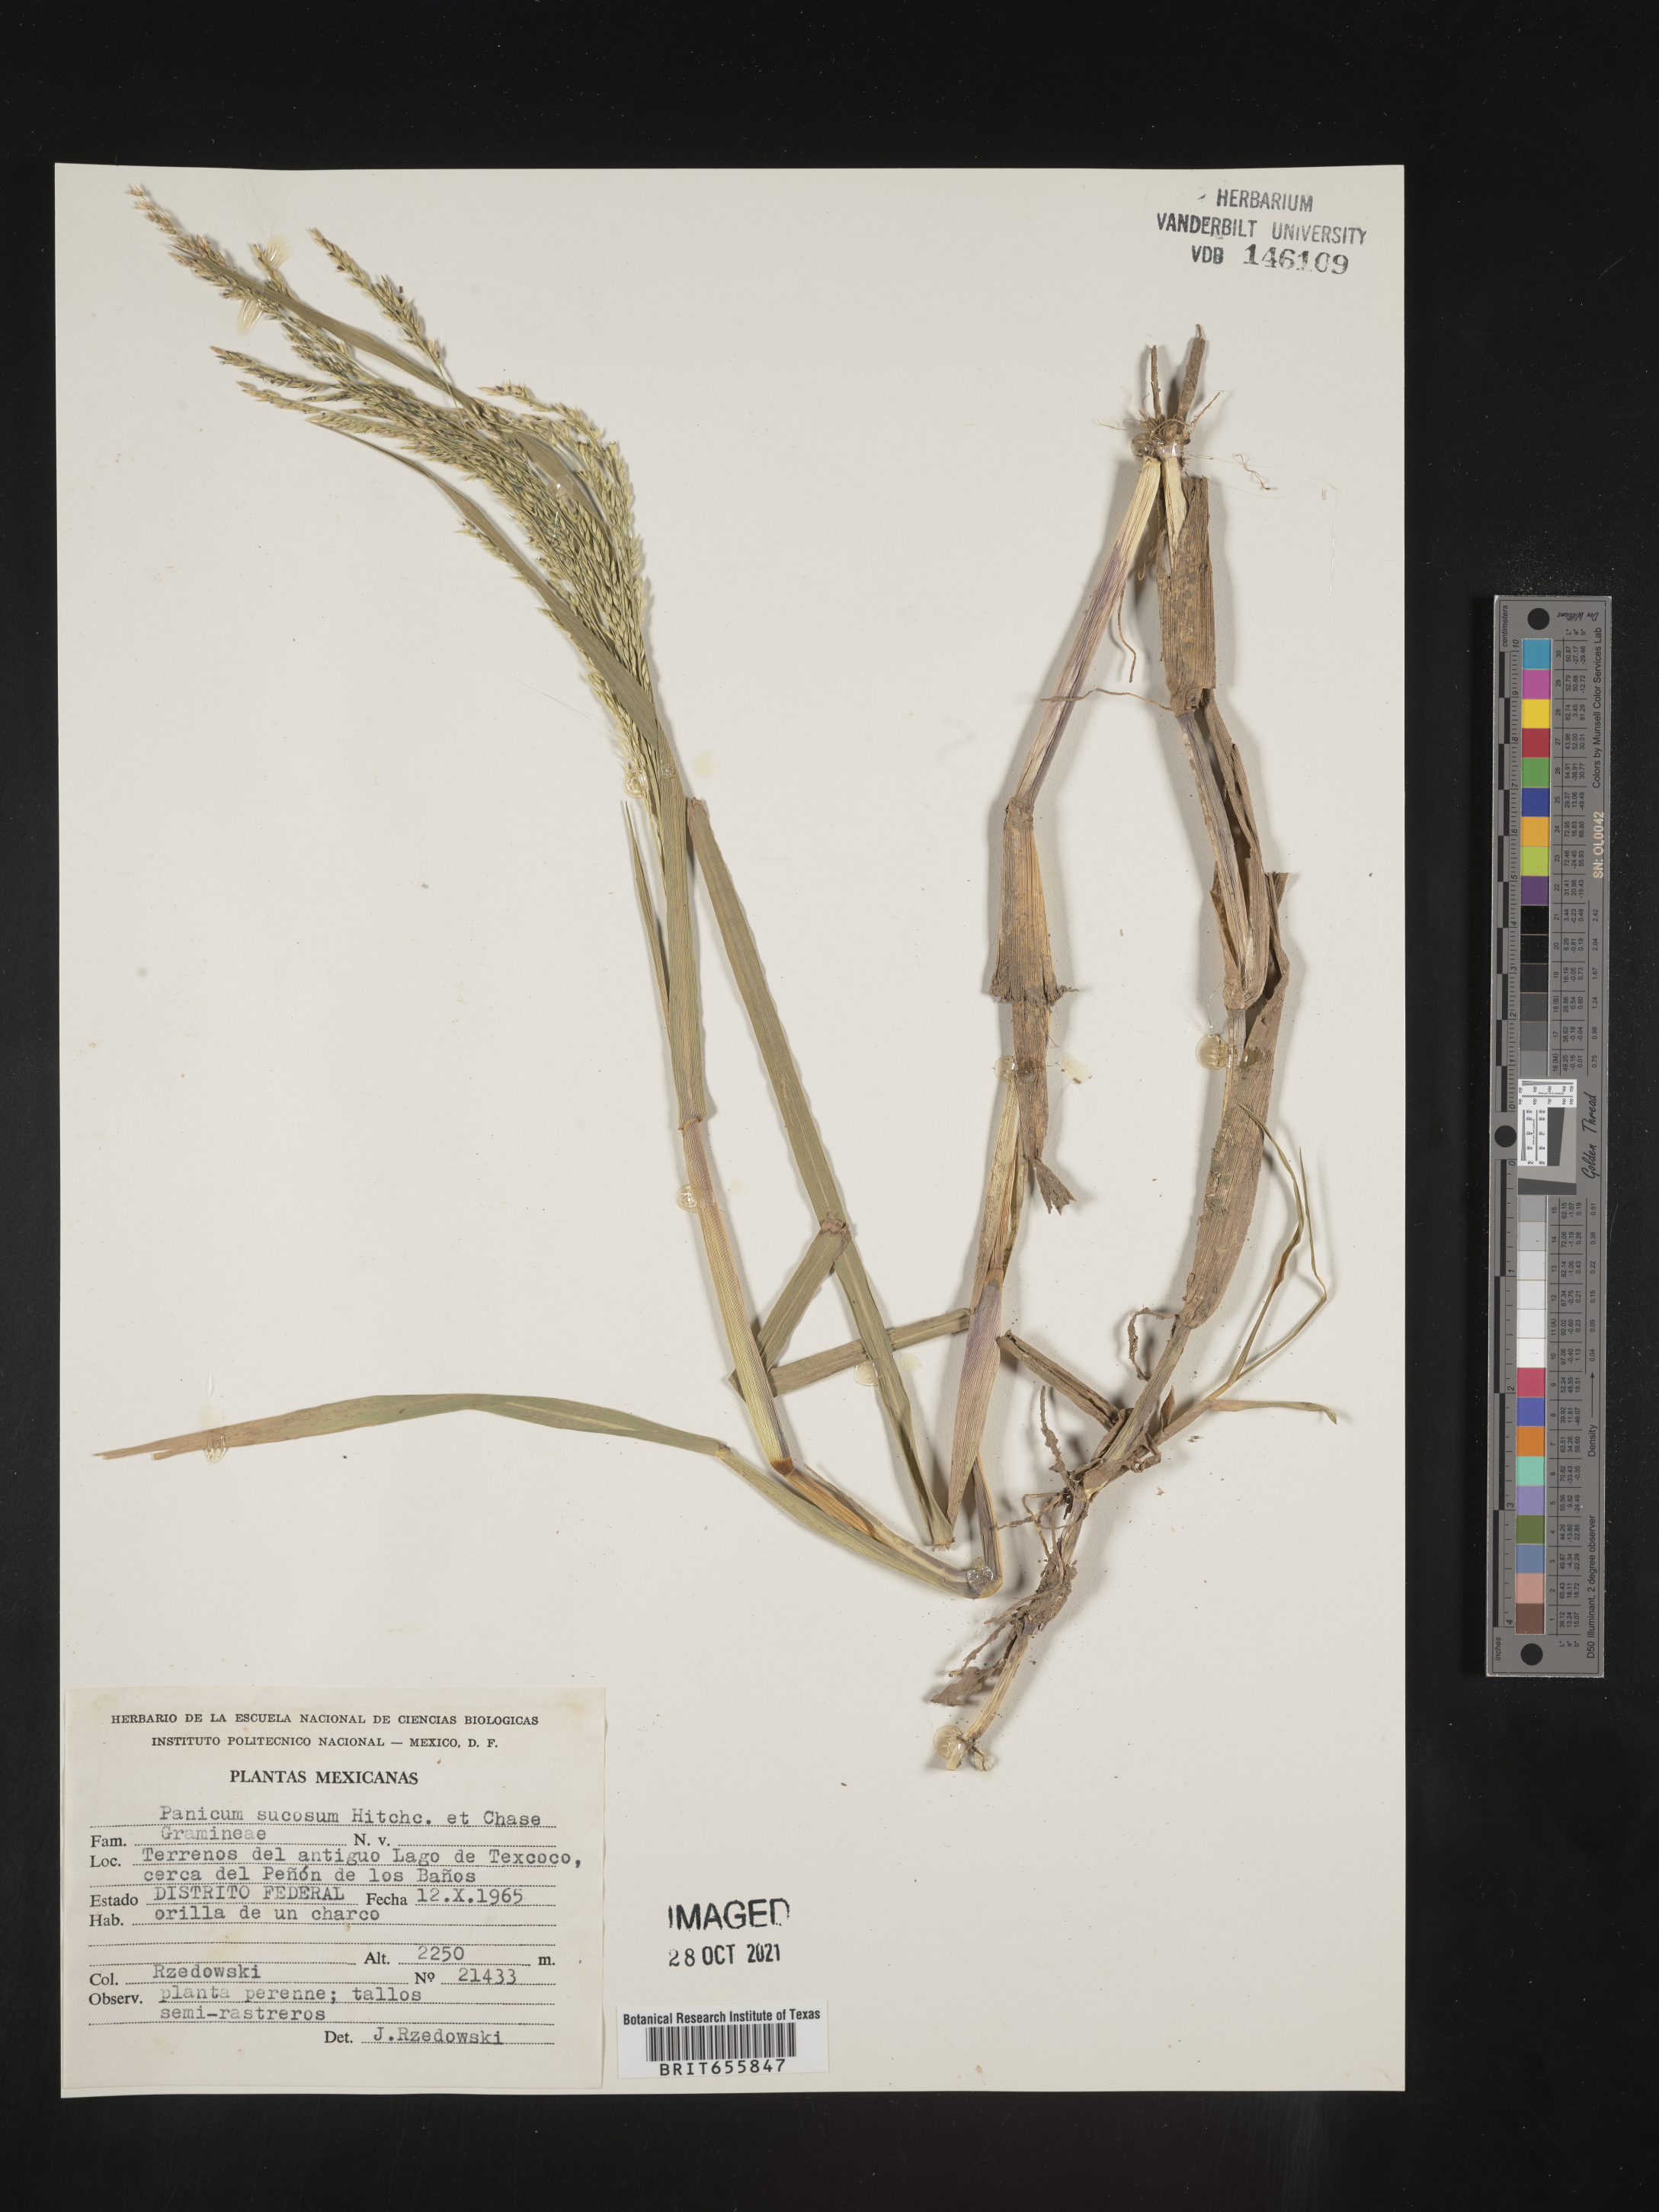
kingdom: Plantae
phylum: Tracheophyta
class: Liliopsida
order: Poales
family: Poaceae
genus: Panicum
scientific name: Panicum
